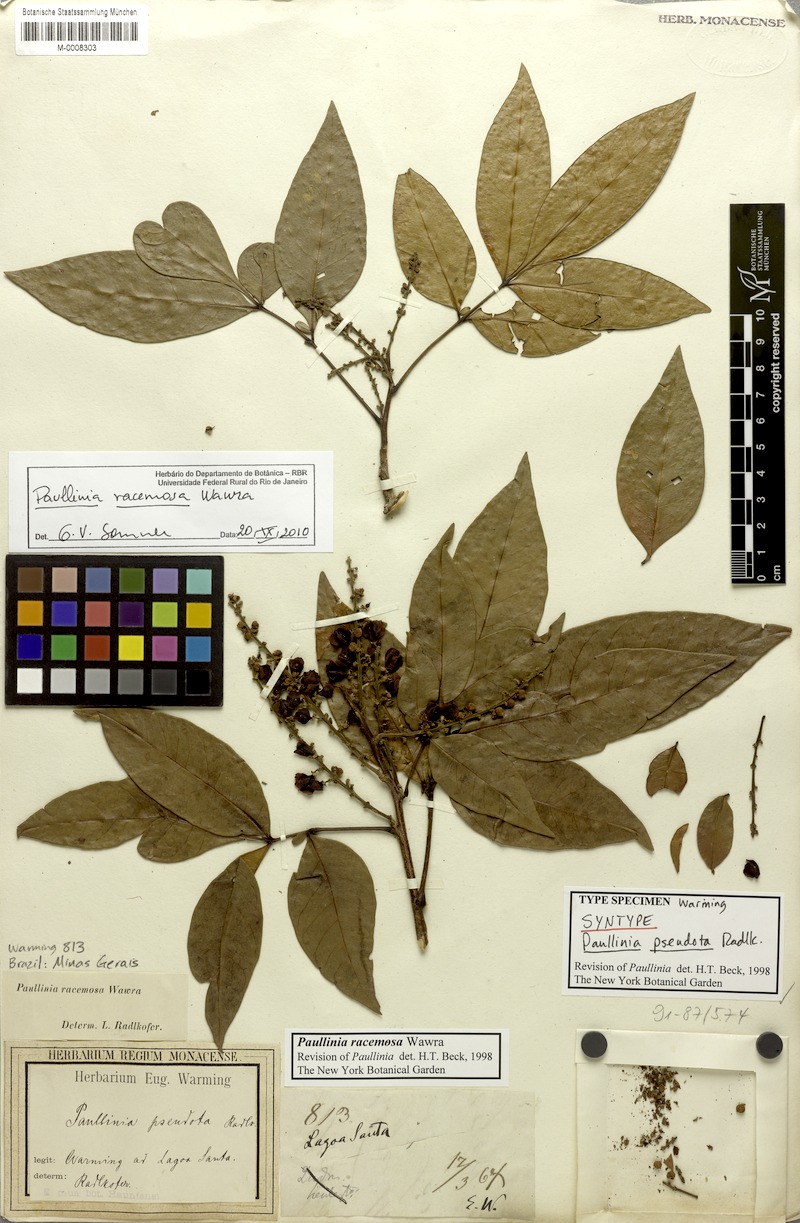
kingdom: Plantae
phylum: Tracheophyta
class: Magnoliopsida
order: Sapindales
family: Sapindaceae
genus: Paullinia
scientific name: Paullinia racemosa
